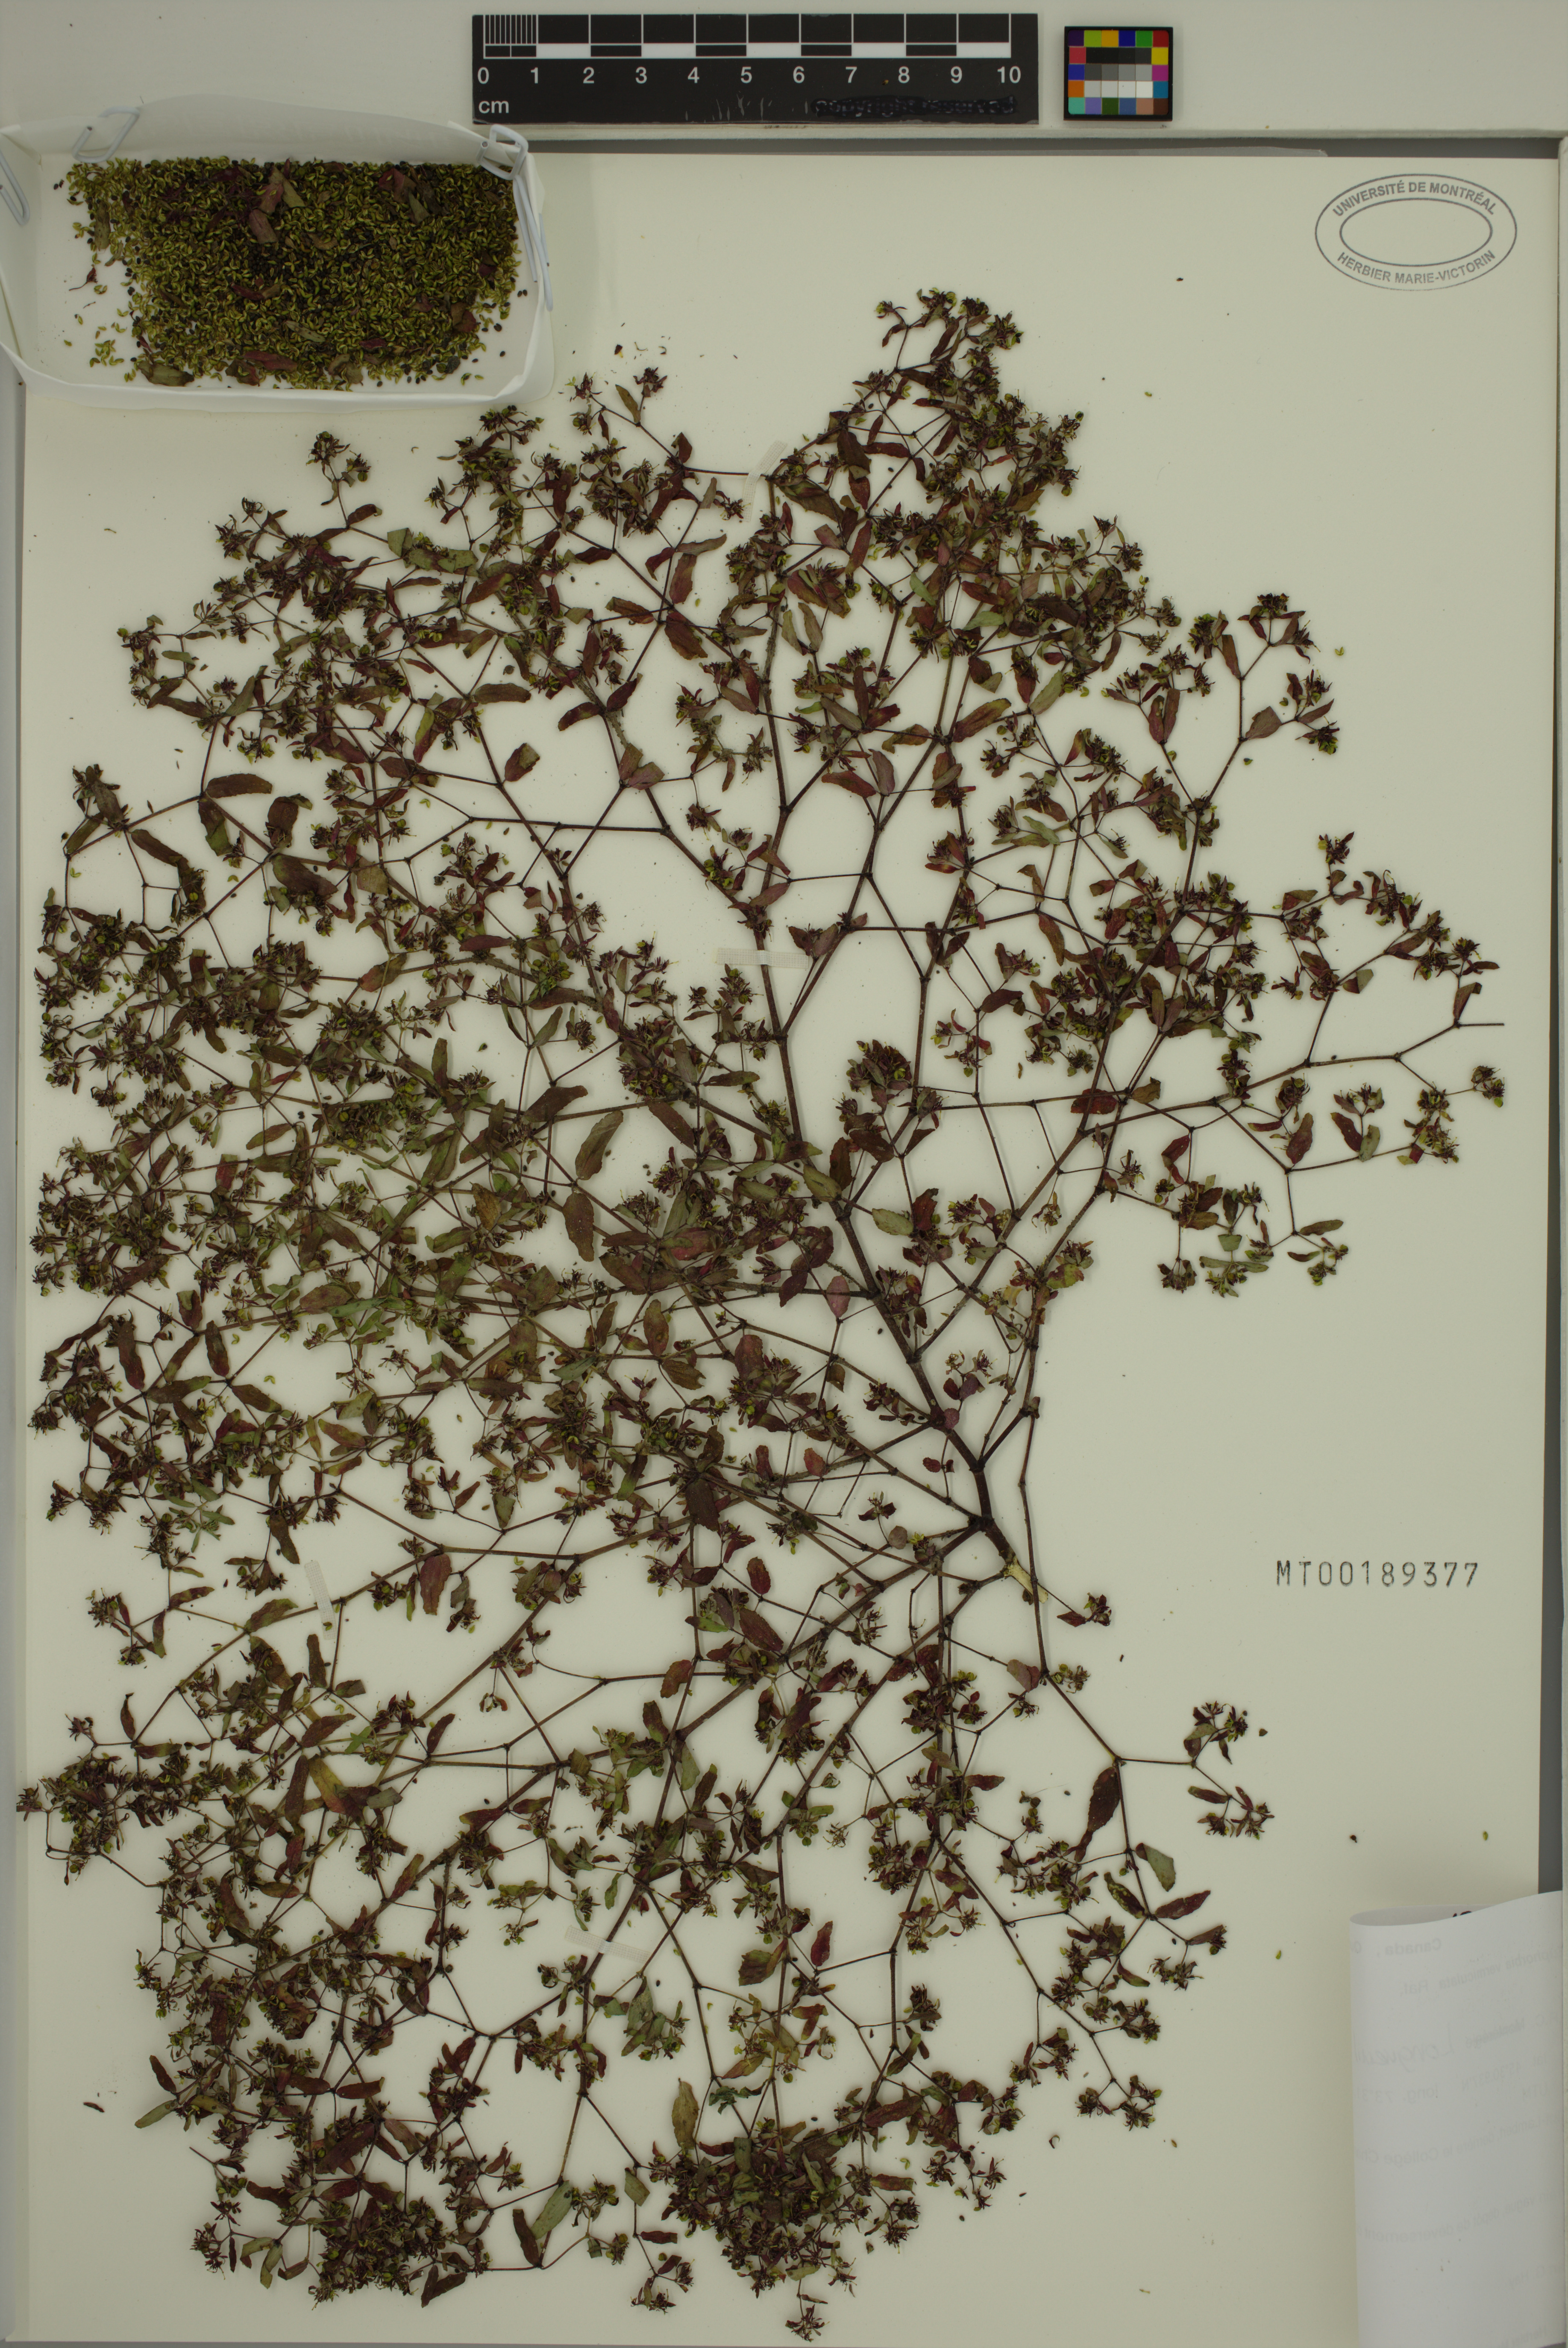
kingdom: Plantae
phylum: Tracheophyta
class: Magnoliopsida
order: Malpighiales
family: Euphorbiaceae
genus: Euphorbia
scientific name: Euphorbia vermiculata
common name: Hairy spurge
